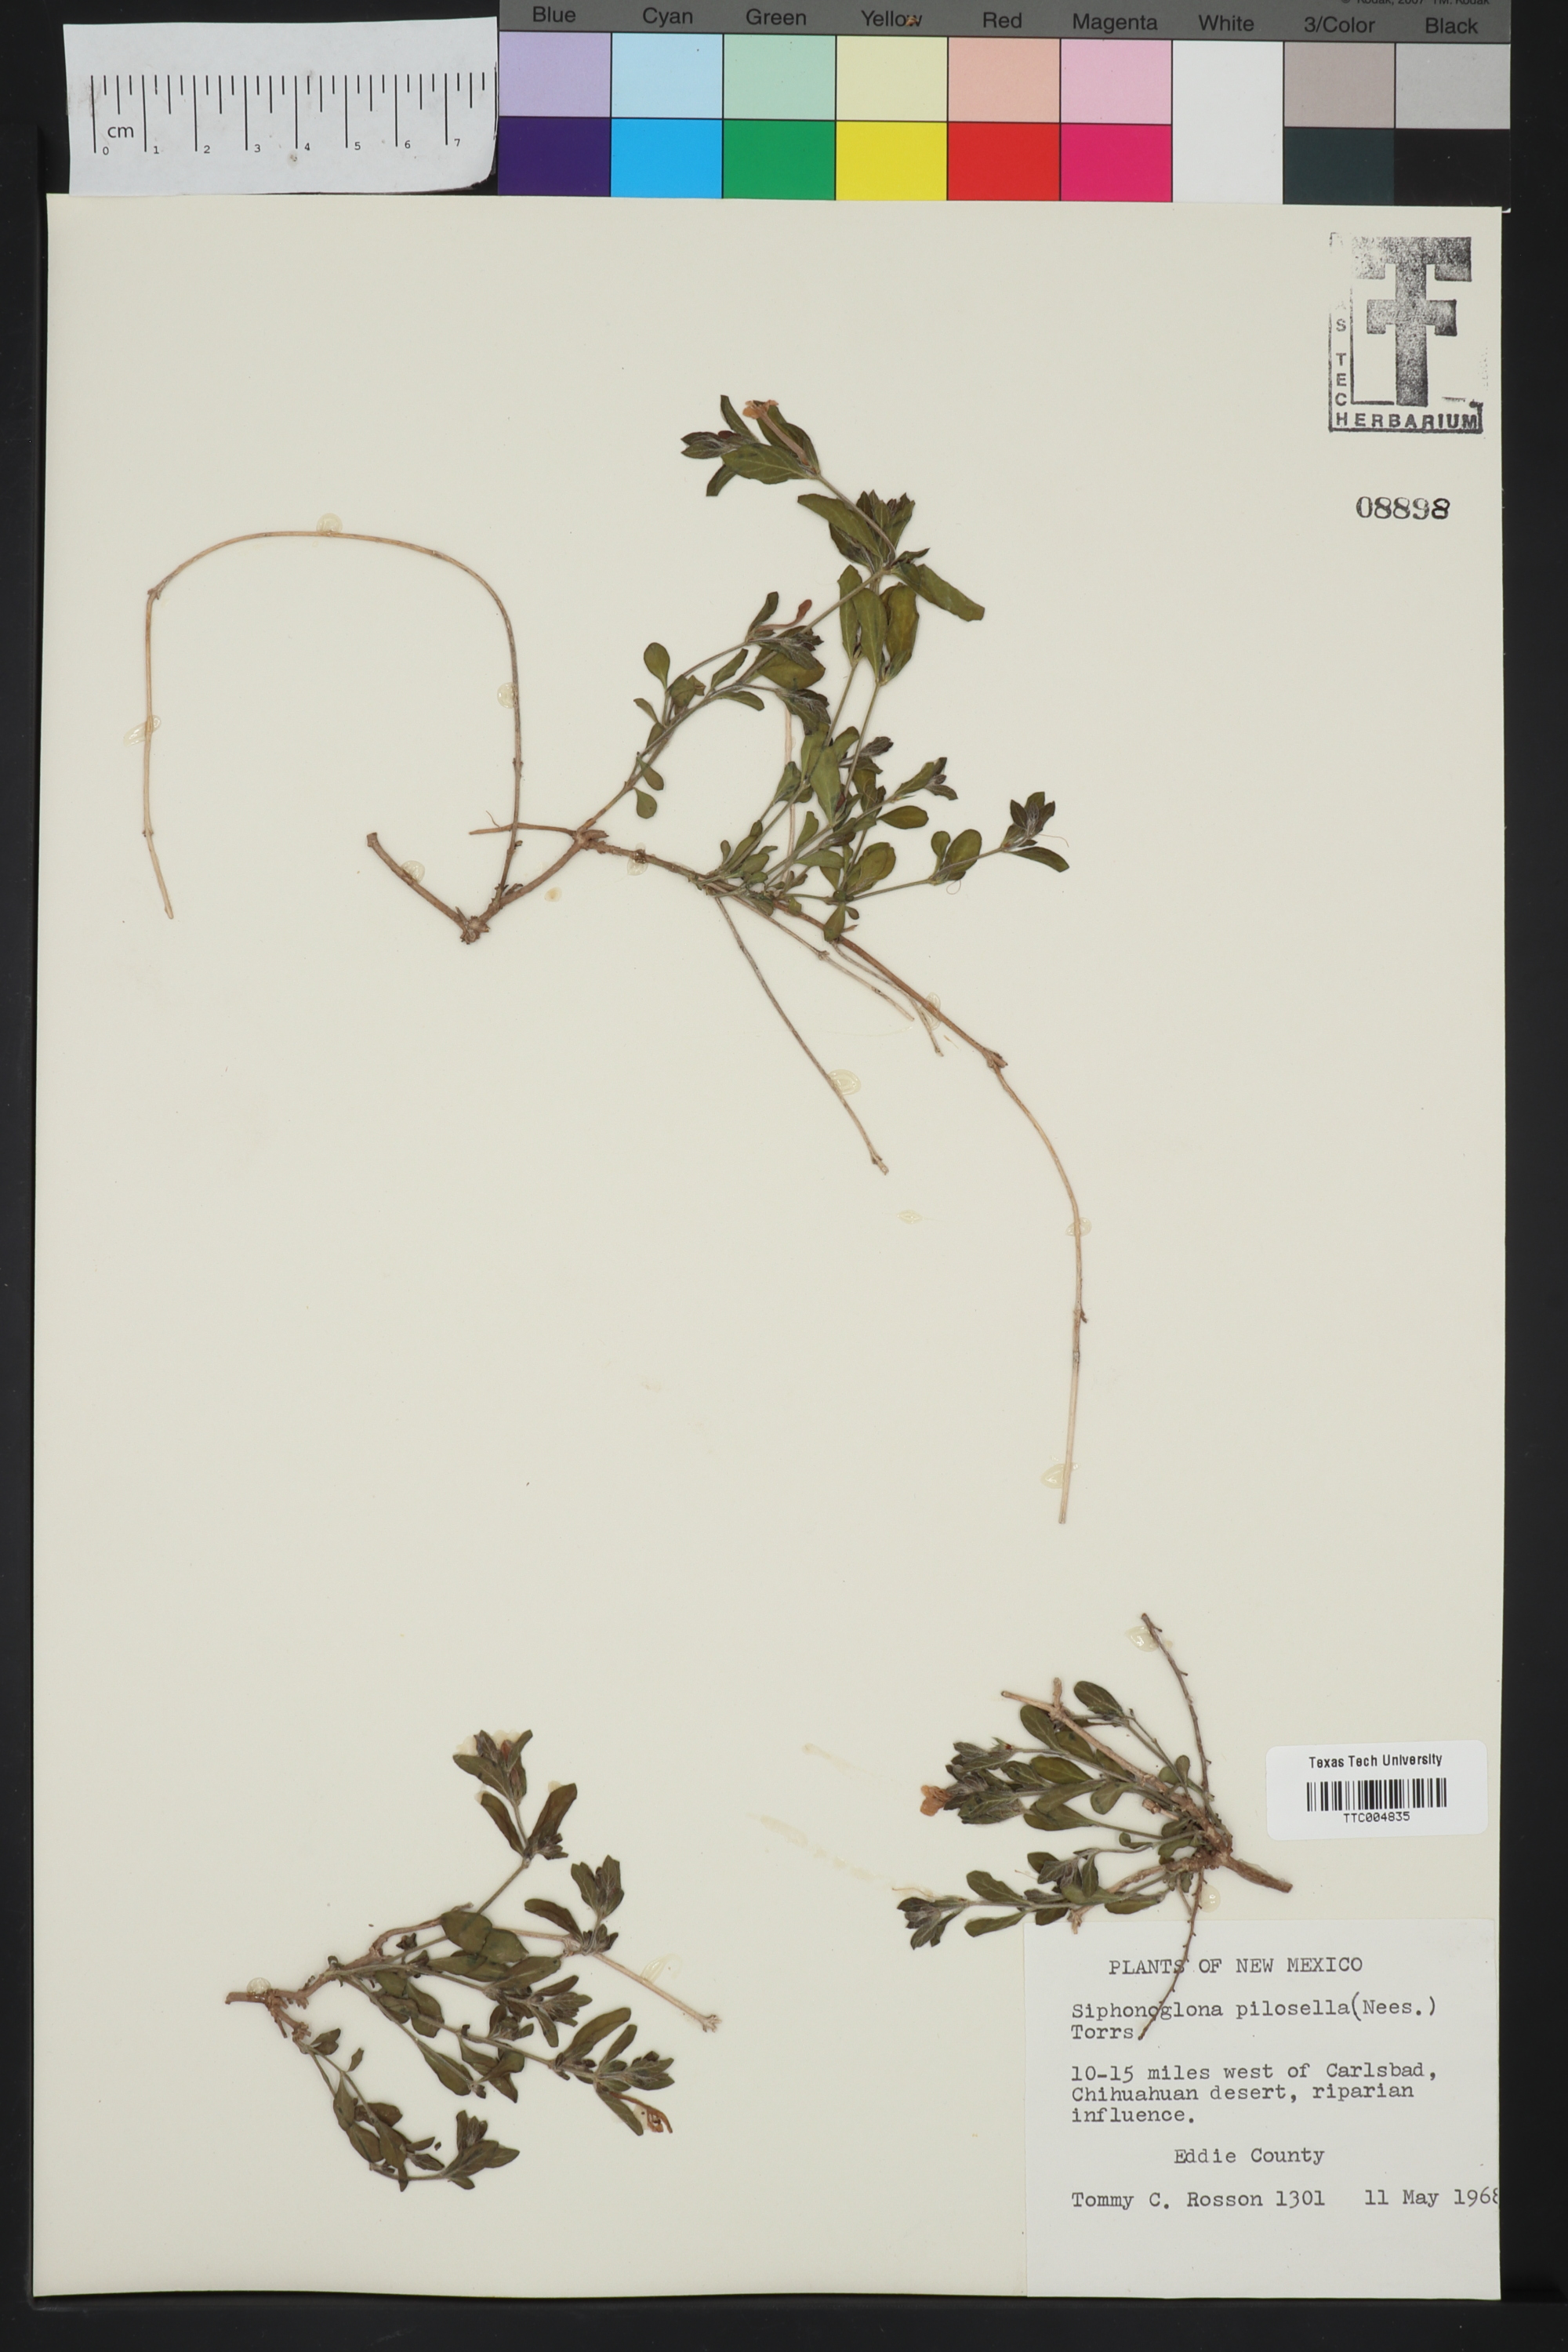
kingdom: Plantae
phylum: Tracheophyta
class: Magnoliopsida
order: Lamiales
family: Acanthaceae
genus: Justicia
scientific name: Justicia pilosella
